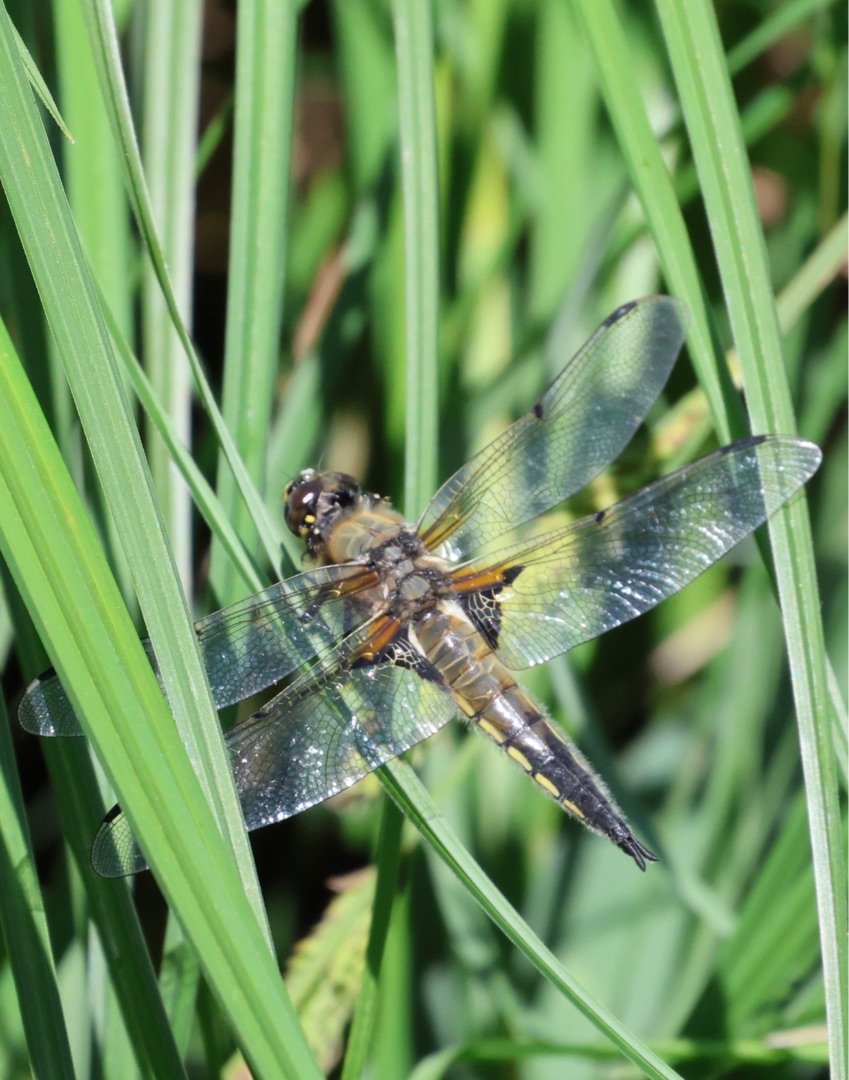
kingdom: Animalia
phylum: Arthropoda
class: Insecta
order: Odonata
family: Libellulidae
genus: Libellula
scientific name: Libellula quadrimaculata
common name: Fireplettet libel
